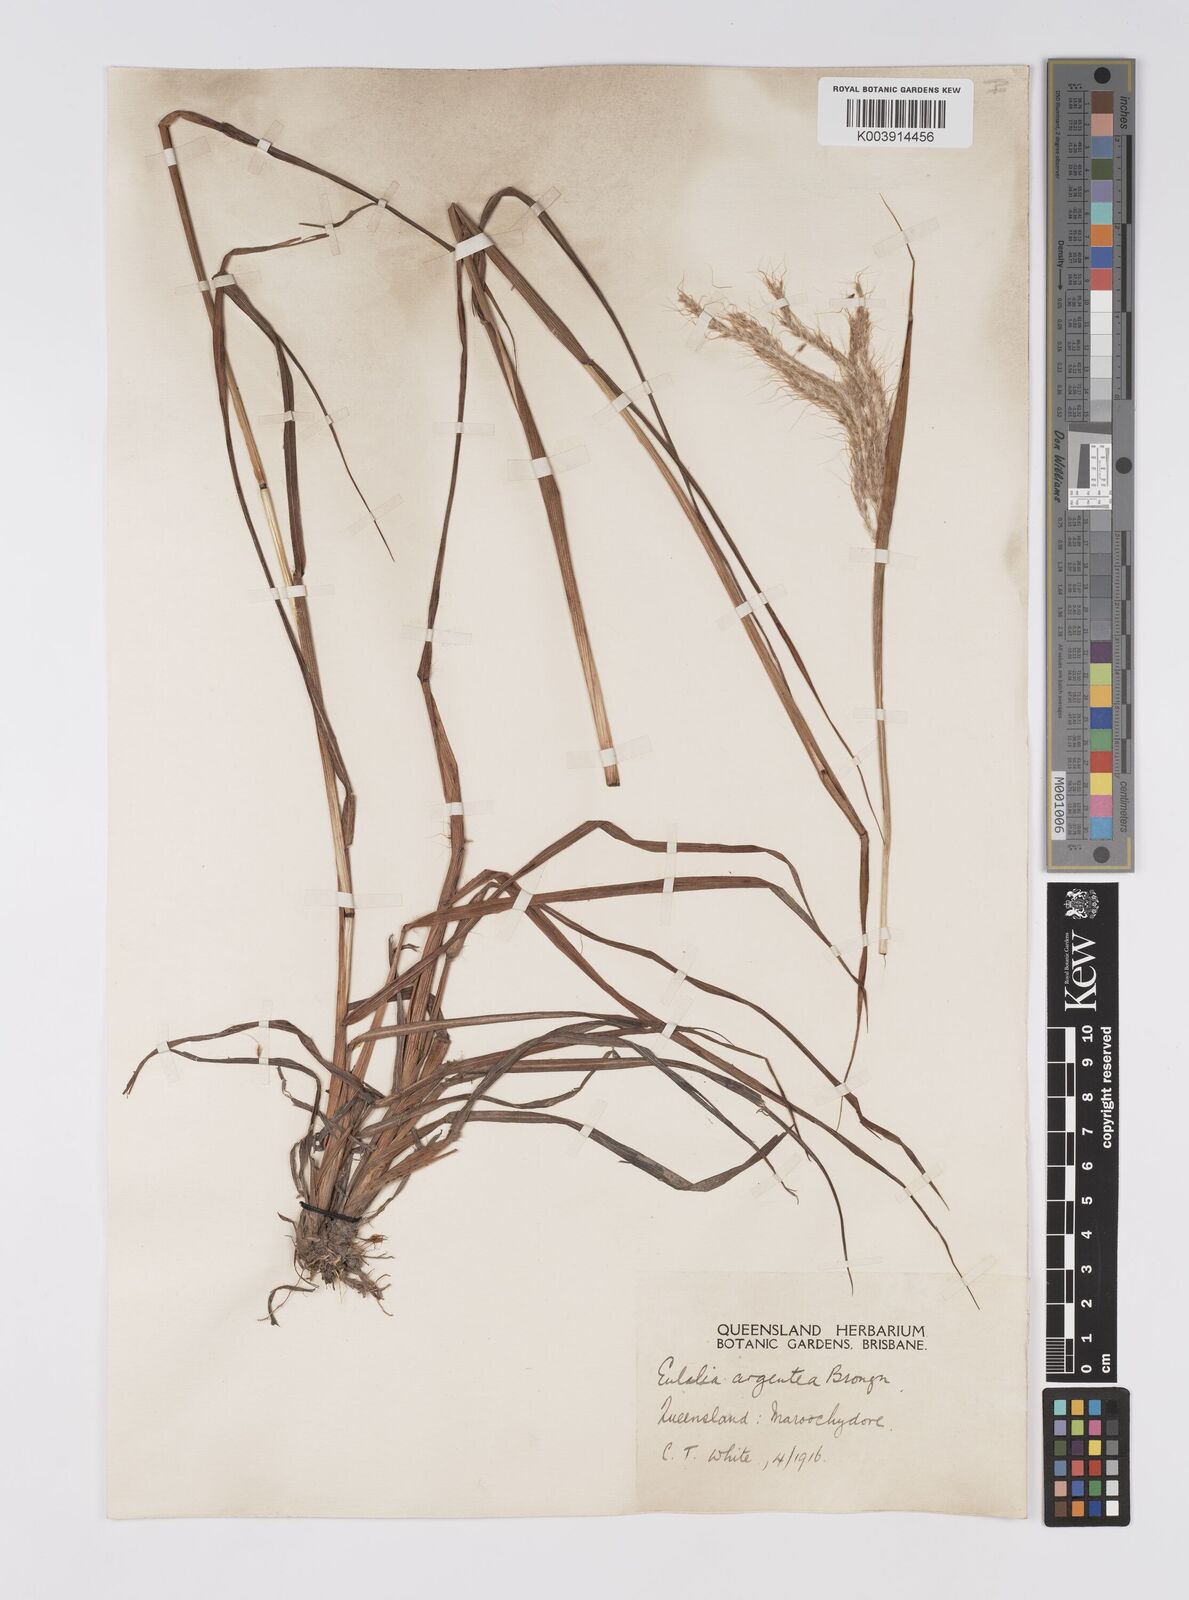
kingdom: Plantae
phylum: Tracheophyta
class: Liliopsida
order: Poales
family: Poaceae
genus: Pseudopogonatherum
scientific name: Pseudopogonatherum trispicatum
